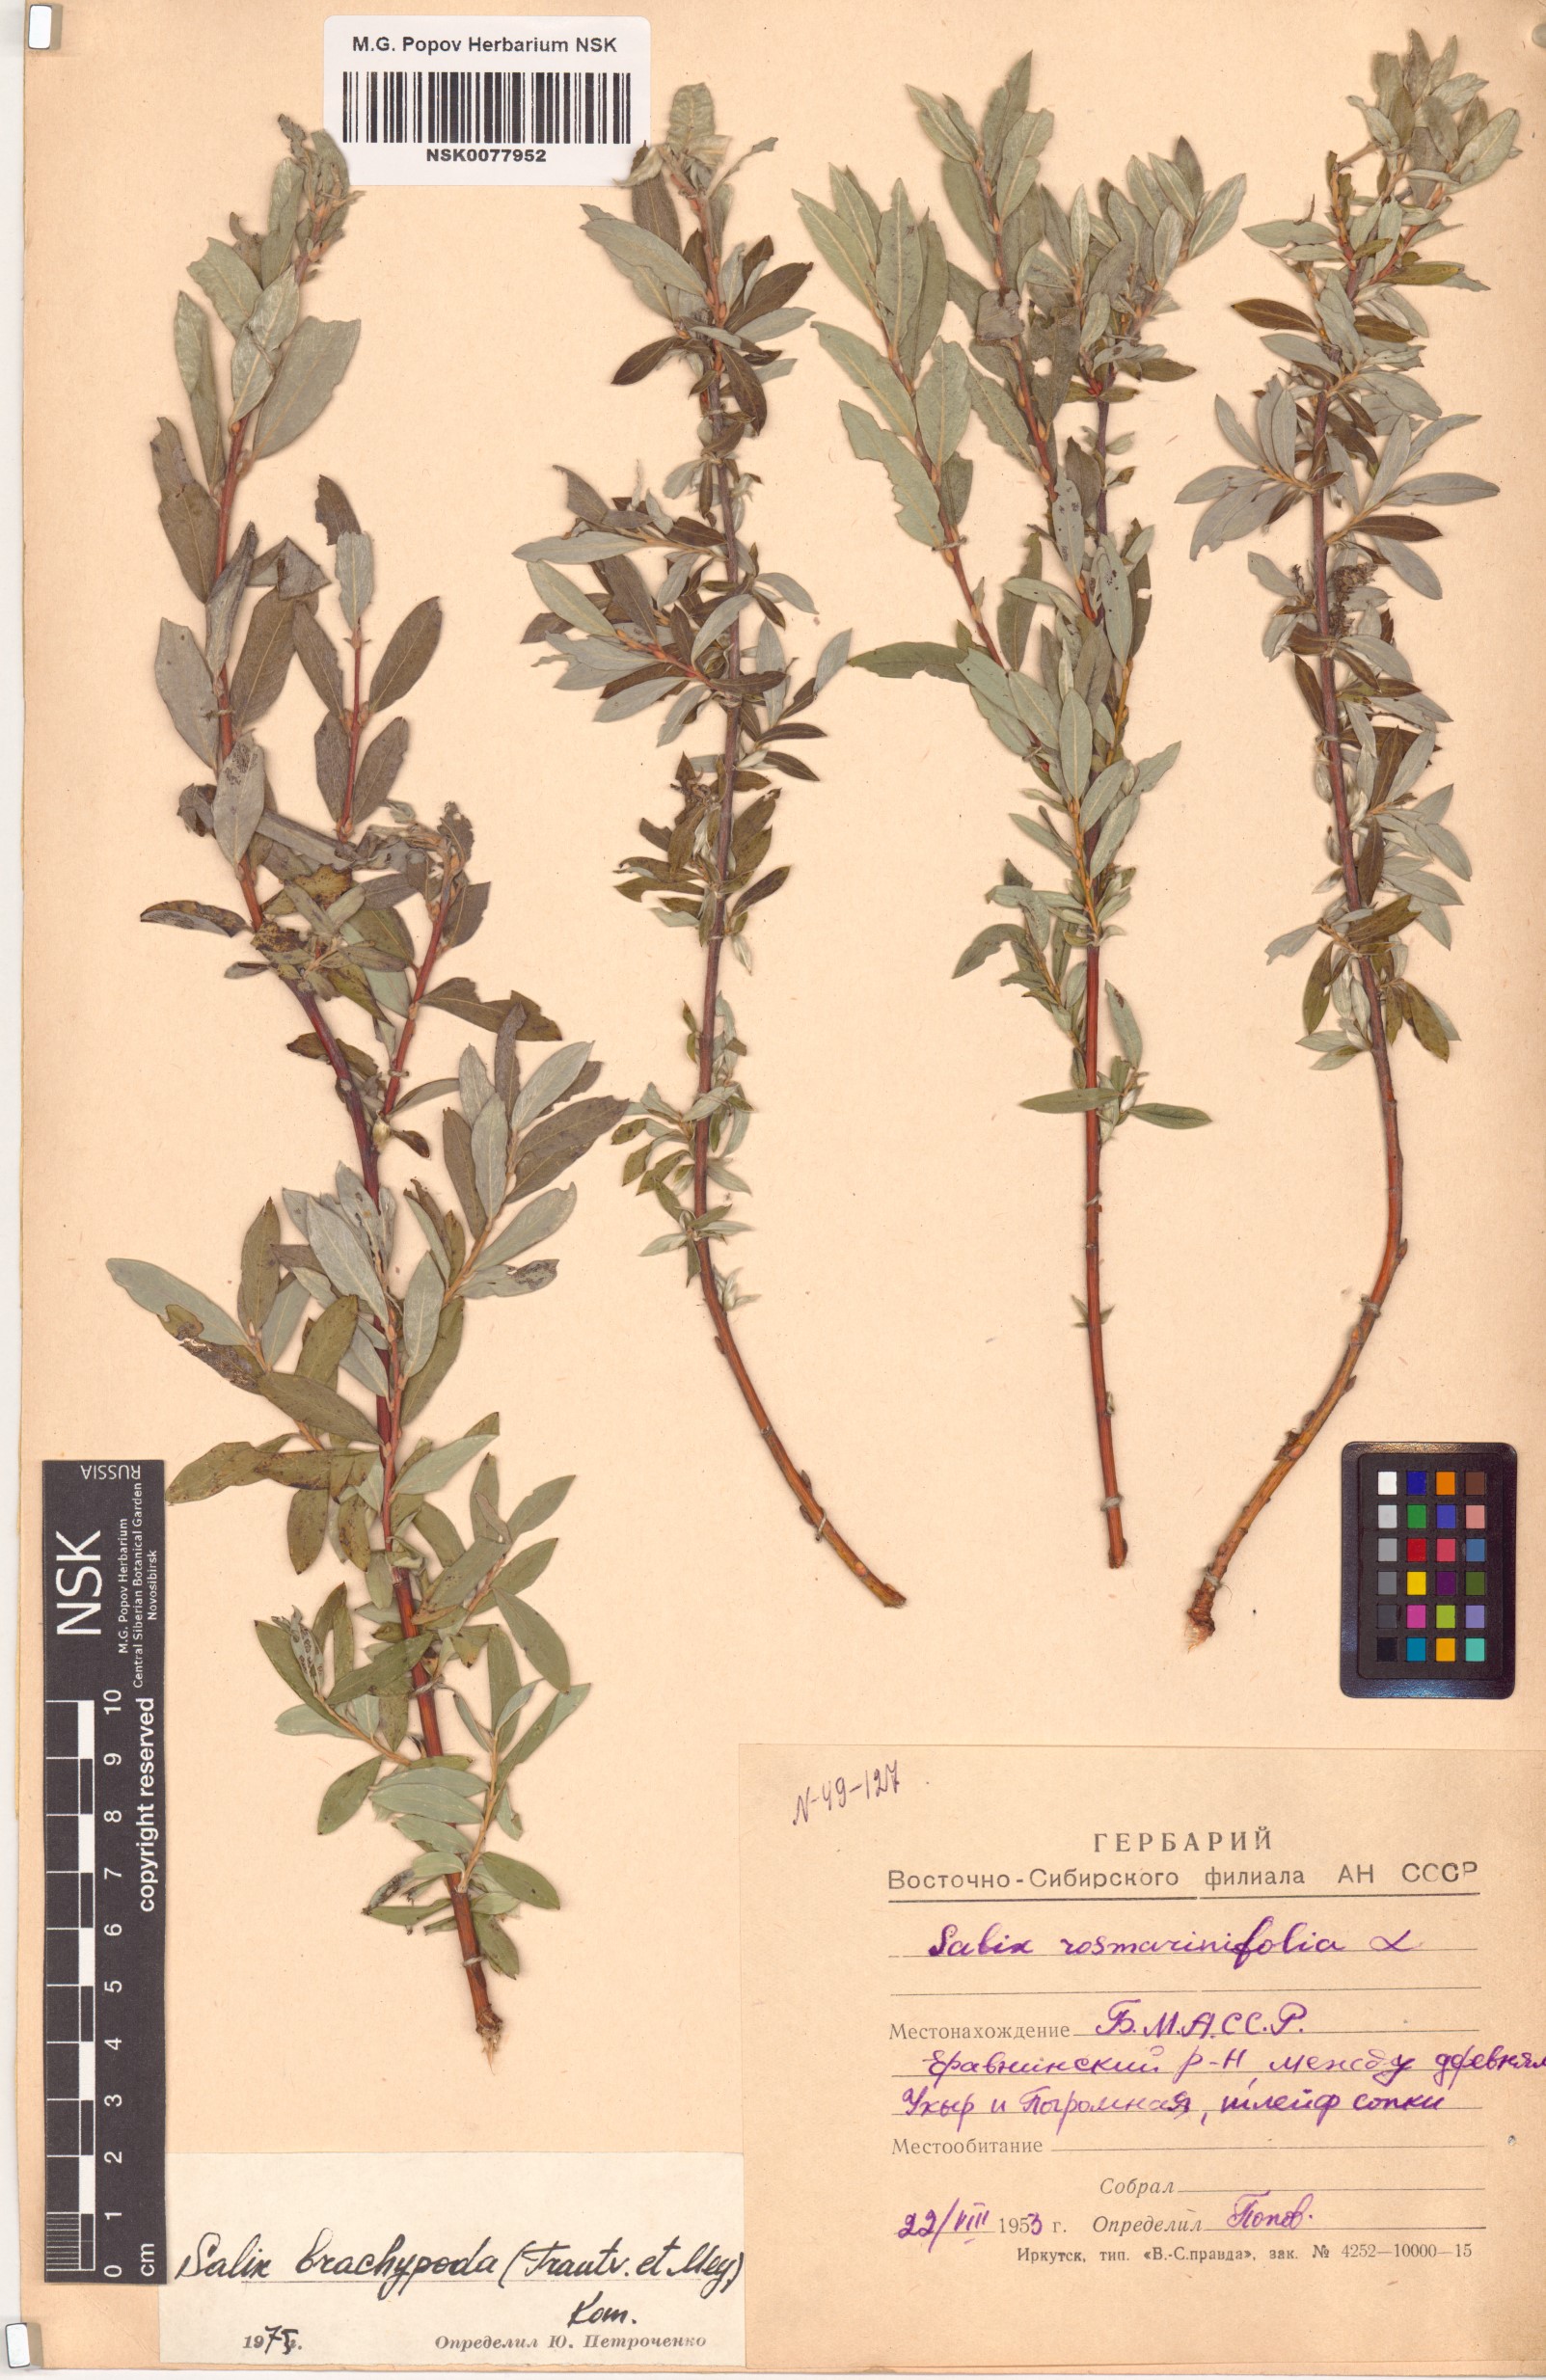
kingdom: Plantae
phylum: Tracheophyta
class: Magnoliopsida
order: Malpighiales
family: Salicaceae
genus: Salix
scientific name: Salix brachypoda
